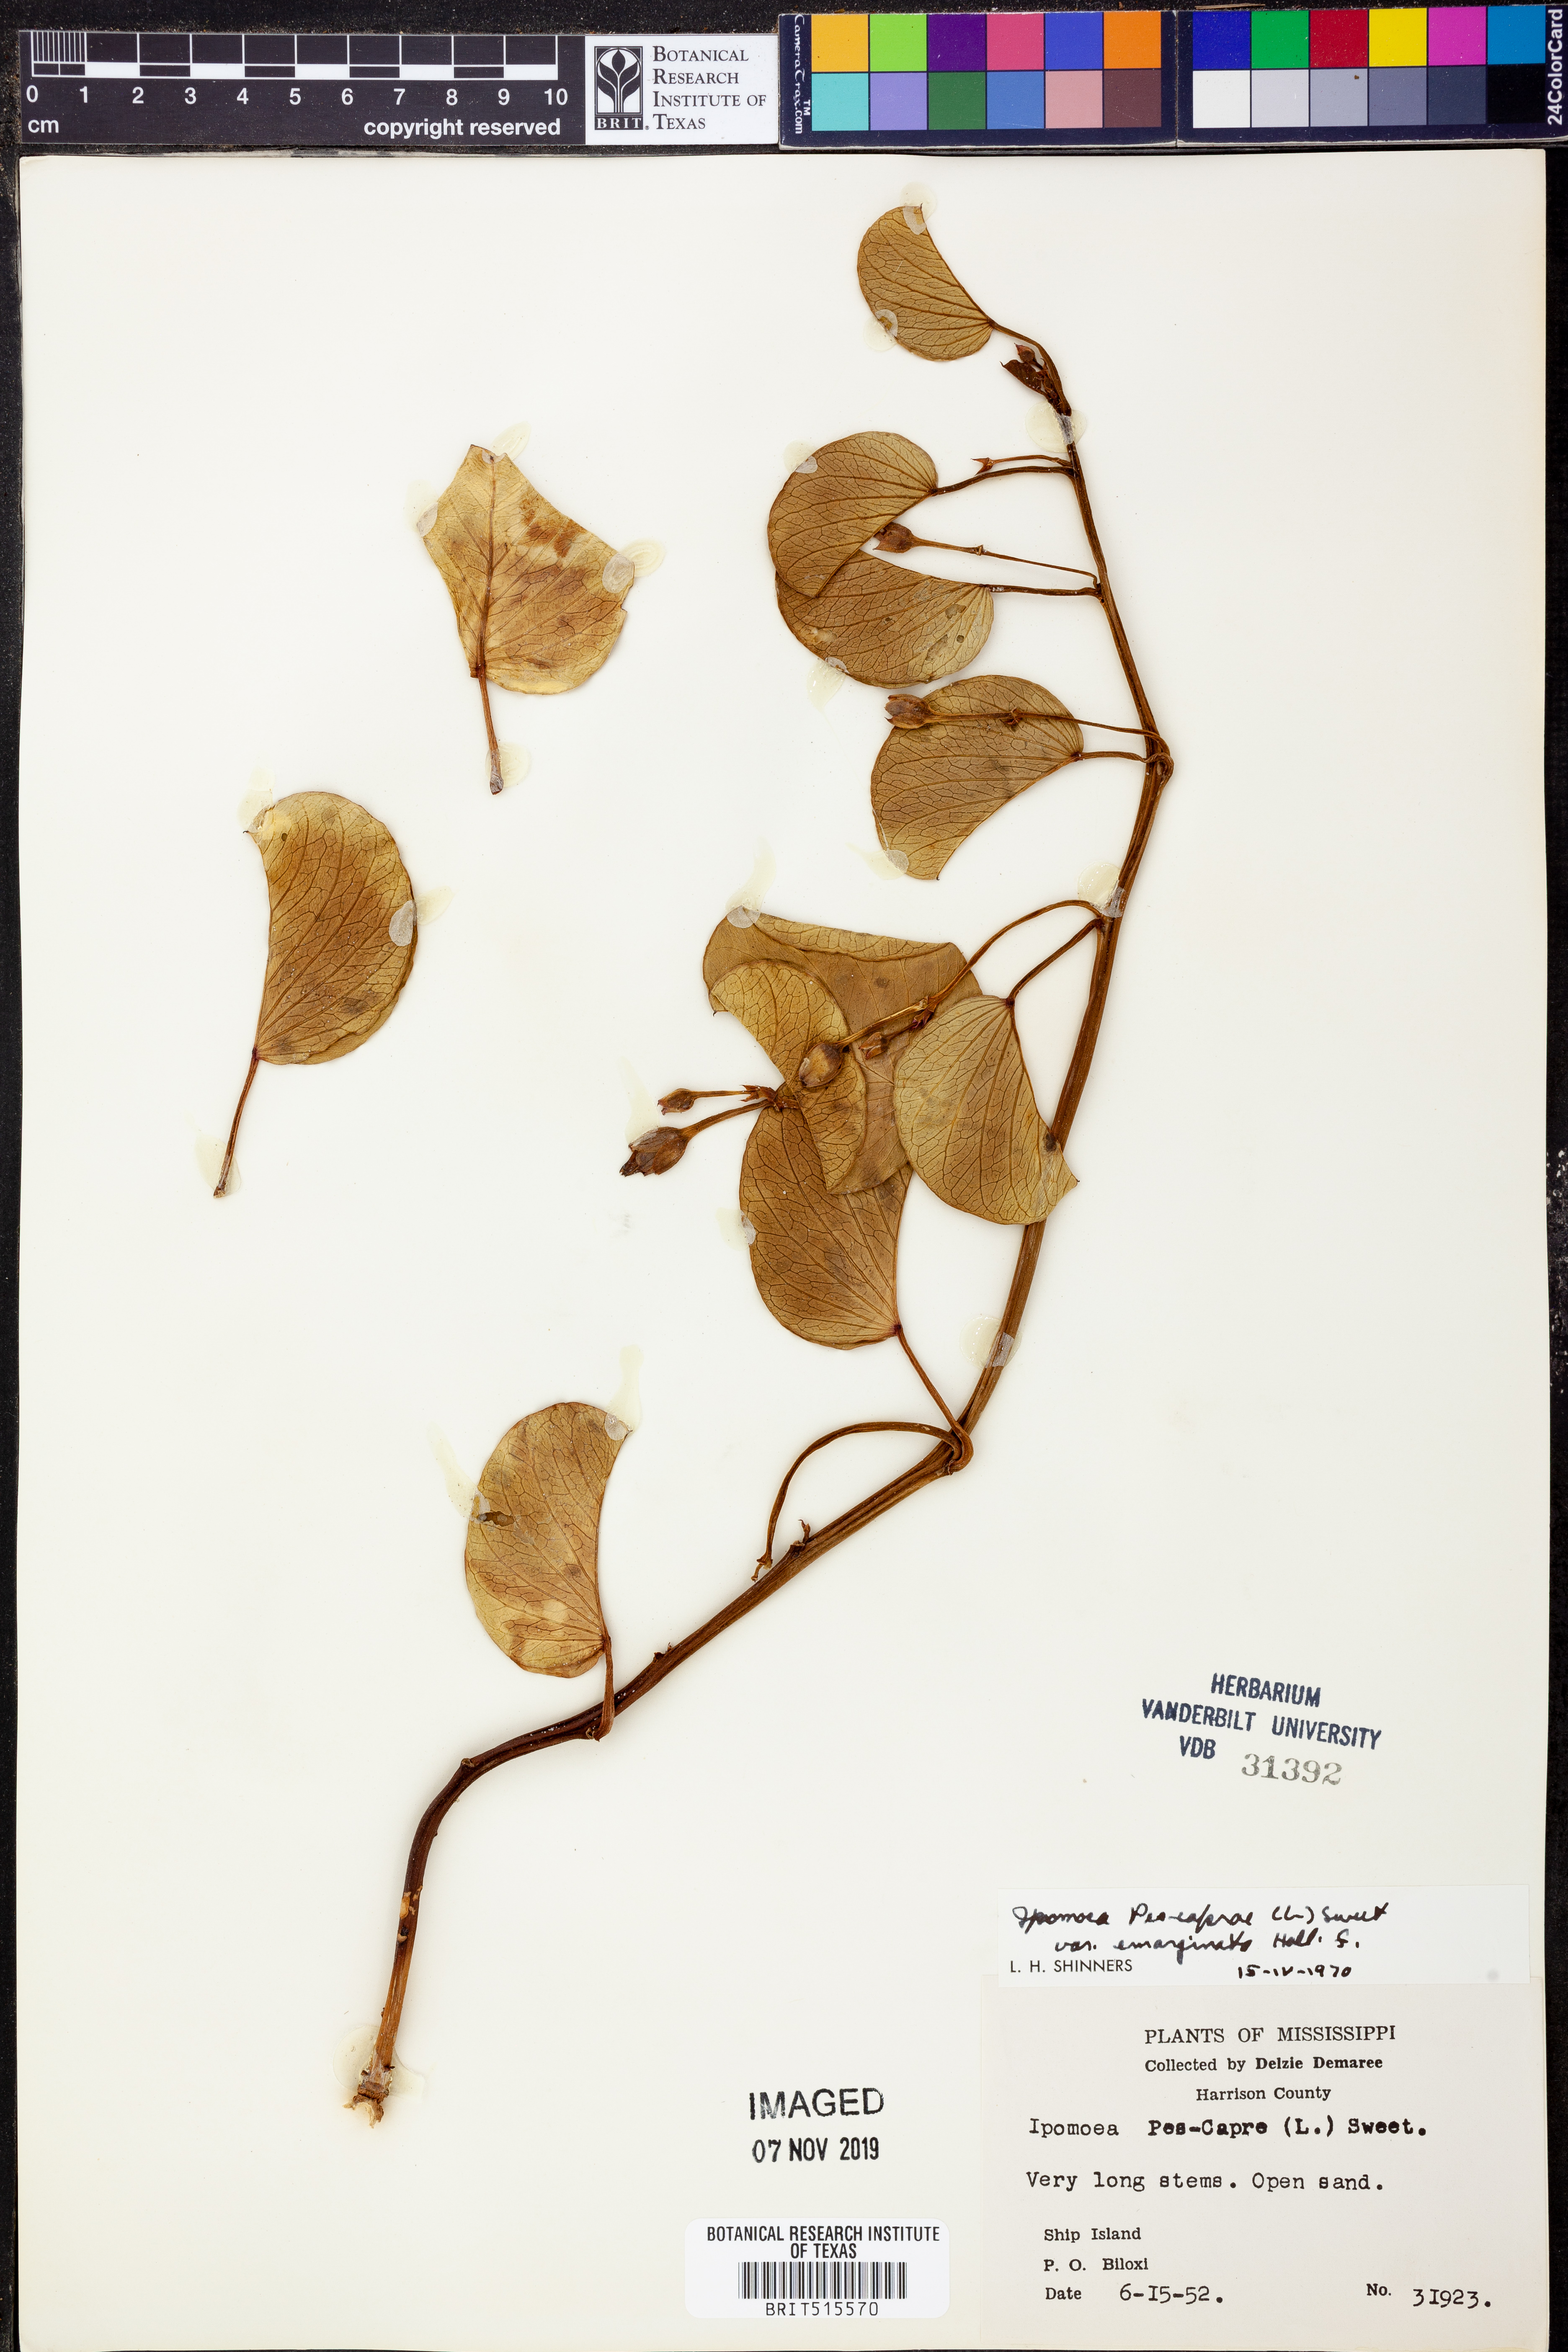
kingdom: Plantae
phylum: Tracheophyta
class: Magnoliopsida
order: Solanales
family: Convolvulaceae
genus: Ipomoea
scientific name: Ipomoea pes-caprae
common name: Beach morning glory
